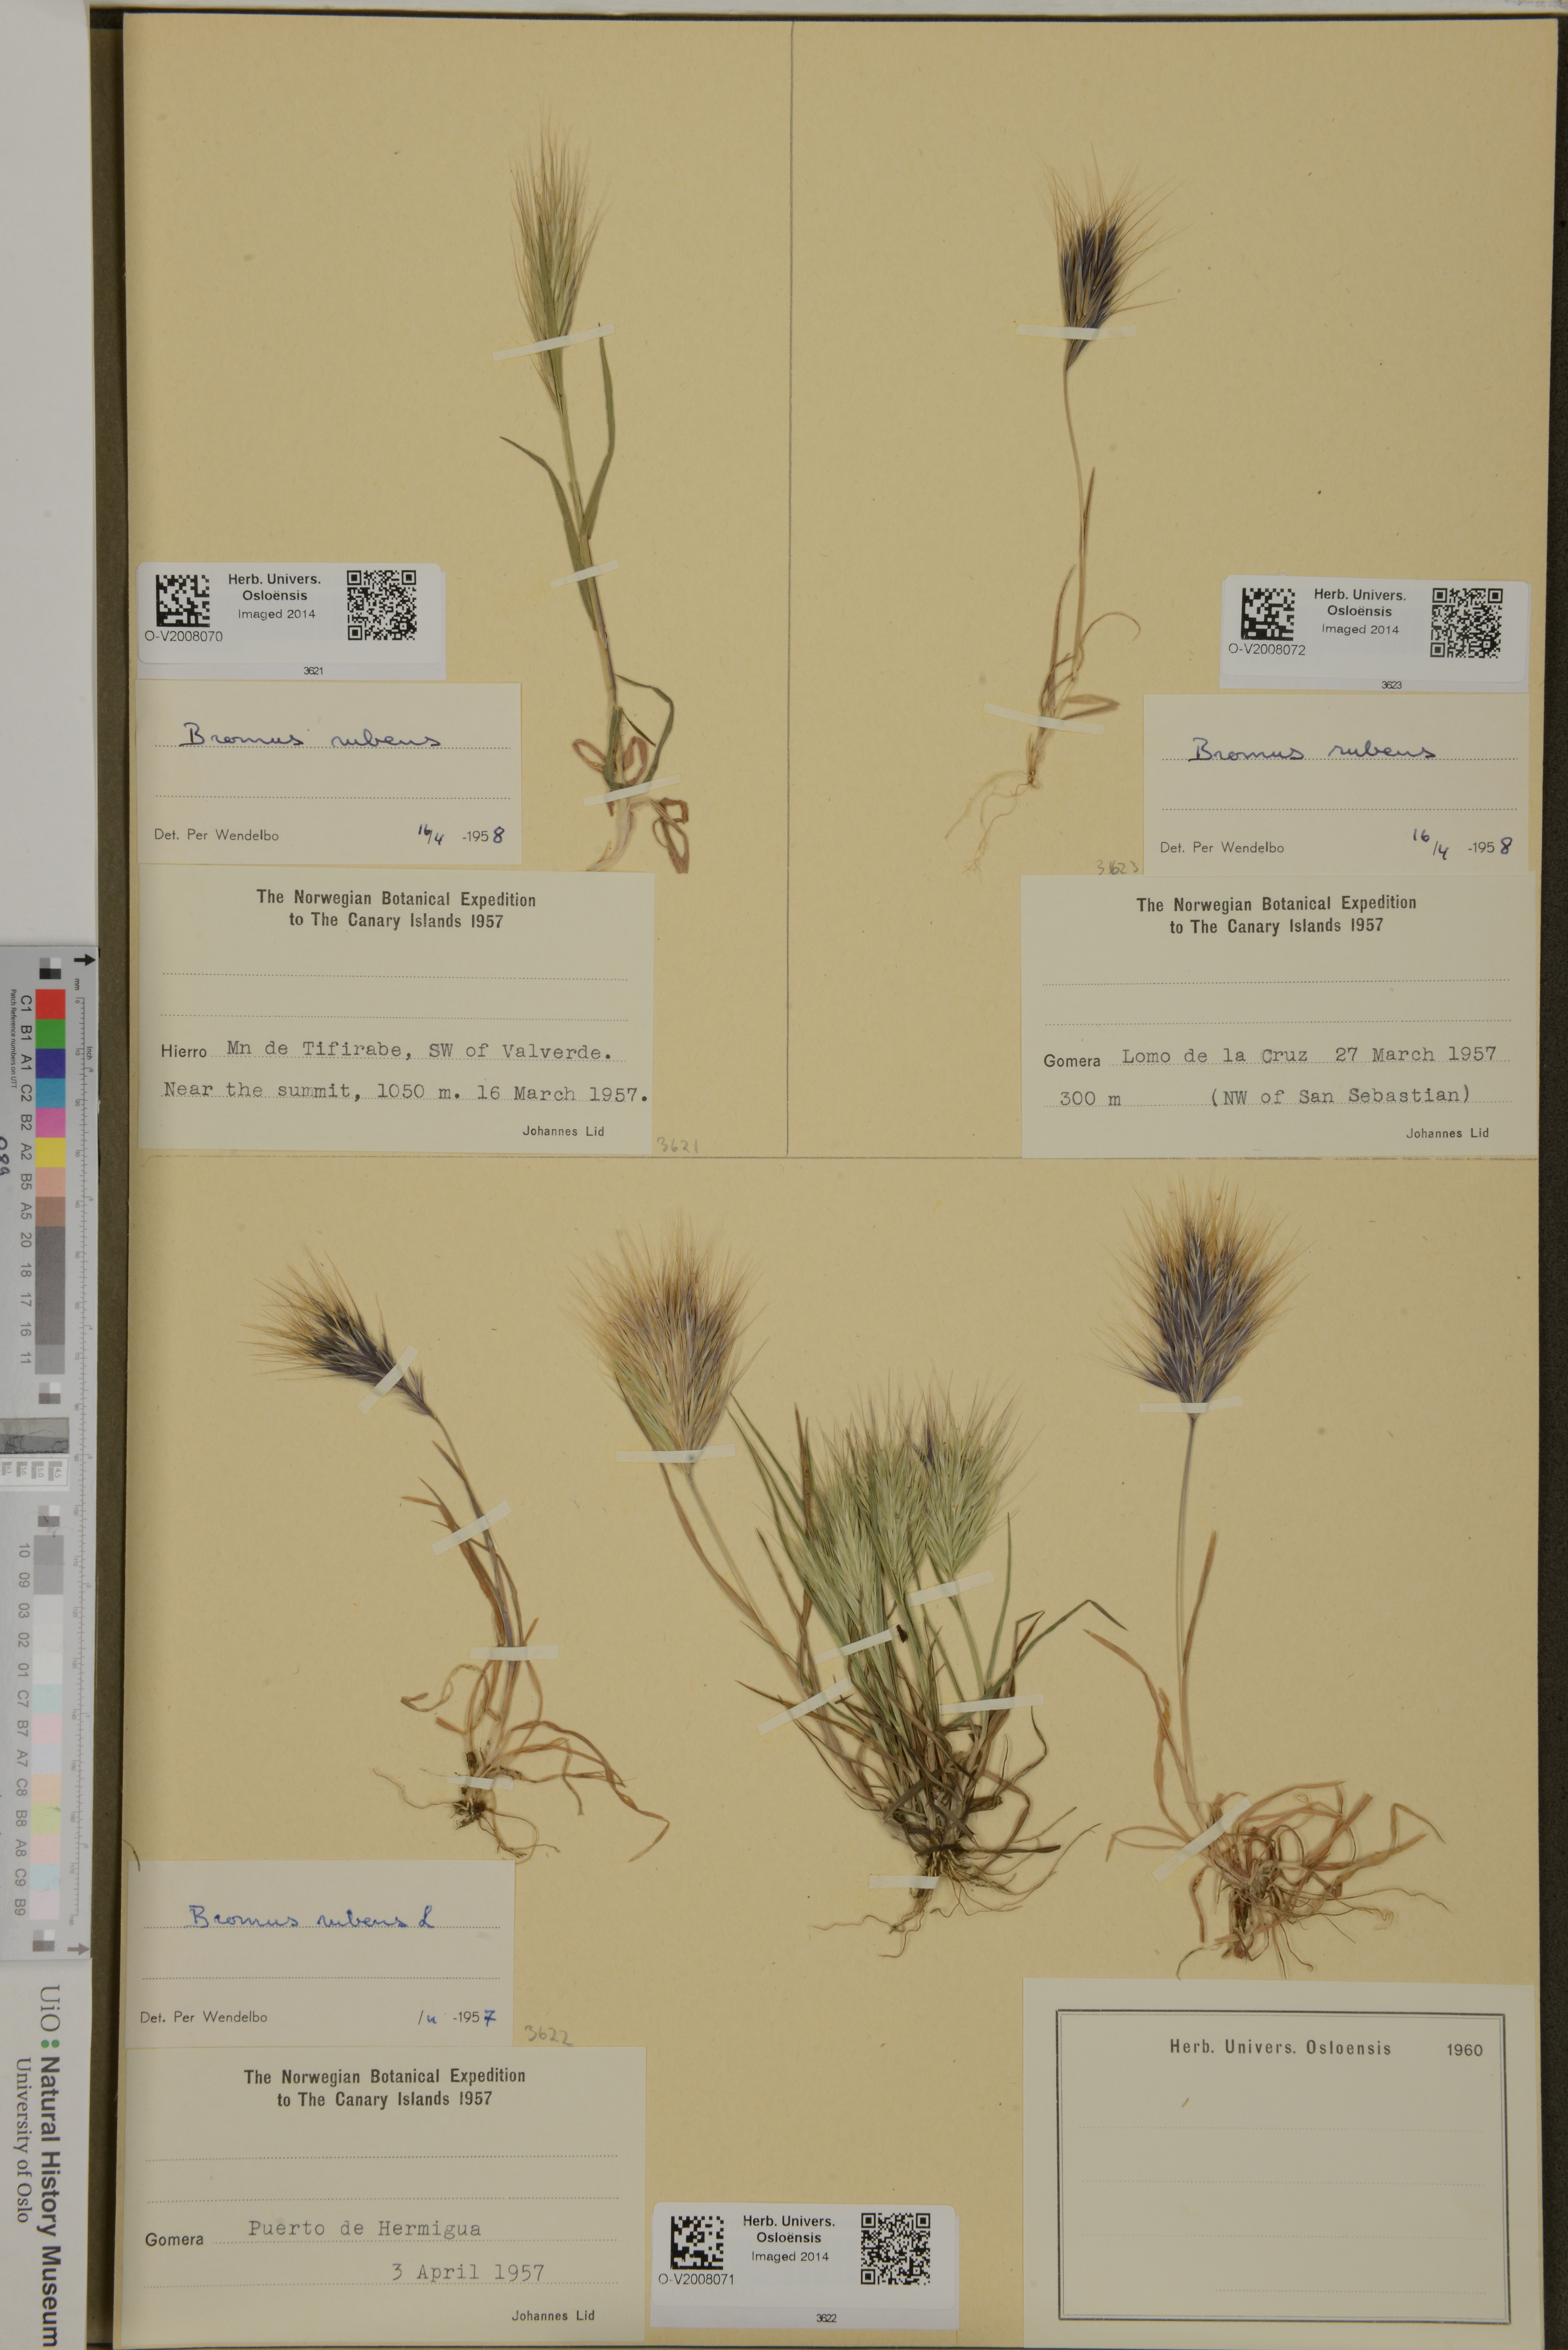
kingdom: Plantae
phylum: Tracheophyta
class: Liliopsida
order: Poales
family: Poaceae
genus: Bromus
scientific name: Bromus rubens
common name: Red brome
